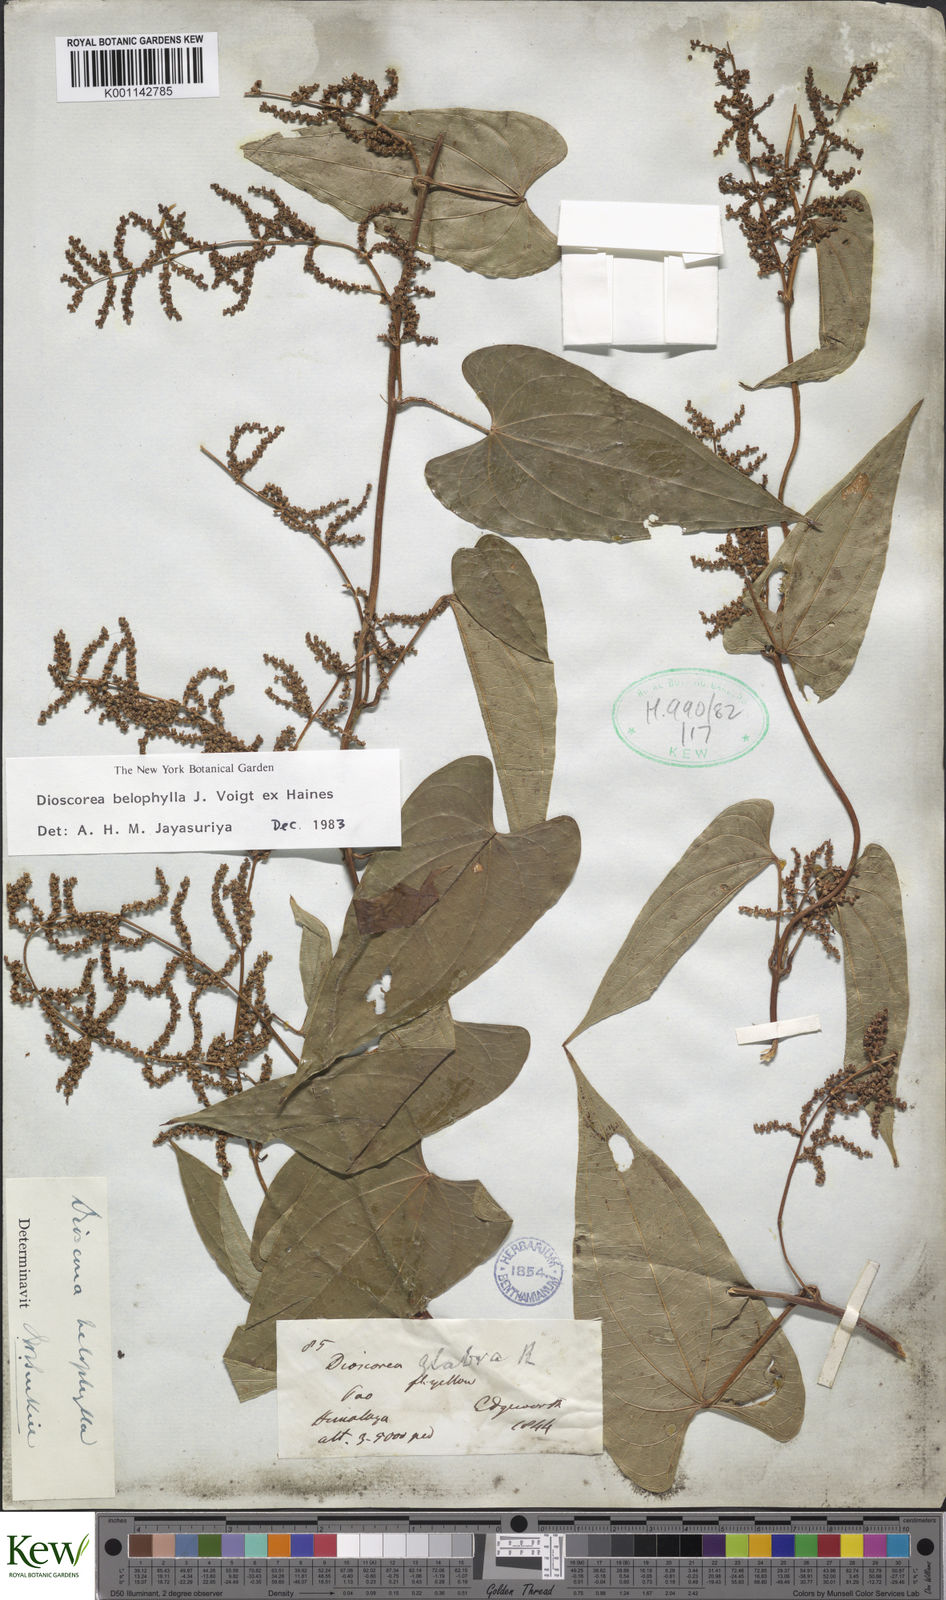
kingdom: Plantae
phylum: Tracheophyta
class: Liliopsida
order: Dioscoreales
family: Dioscoreaceae
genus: Dioscorea
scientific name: Dioscorea belophylla
